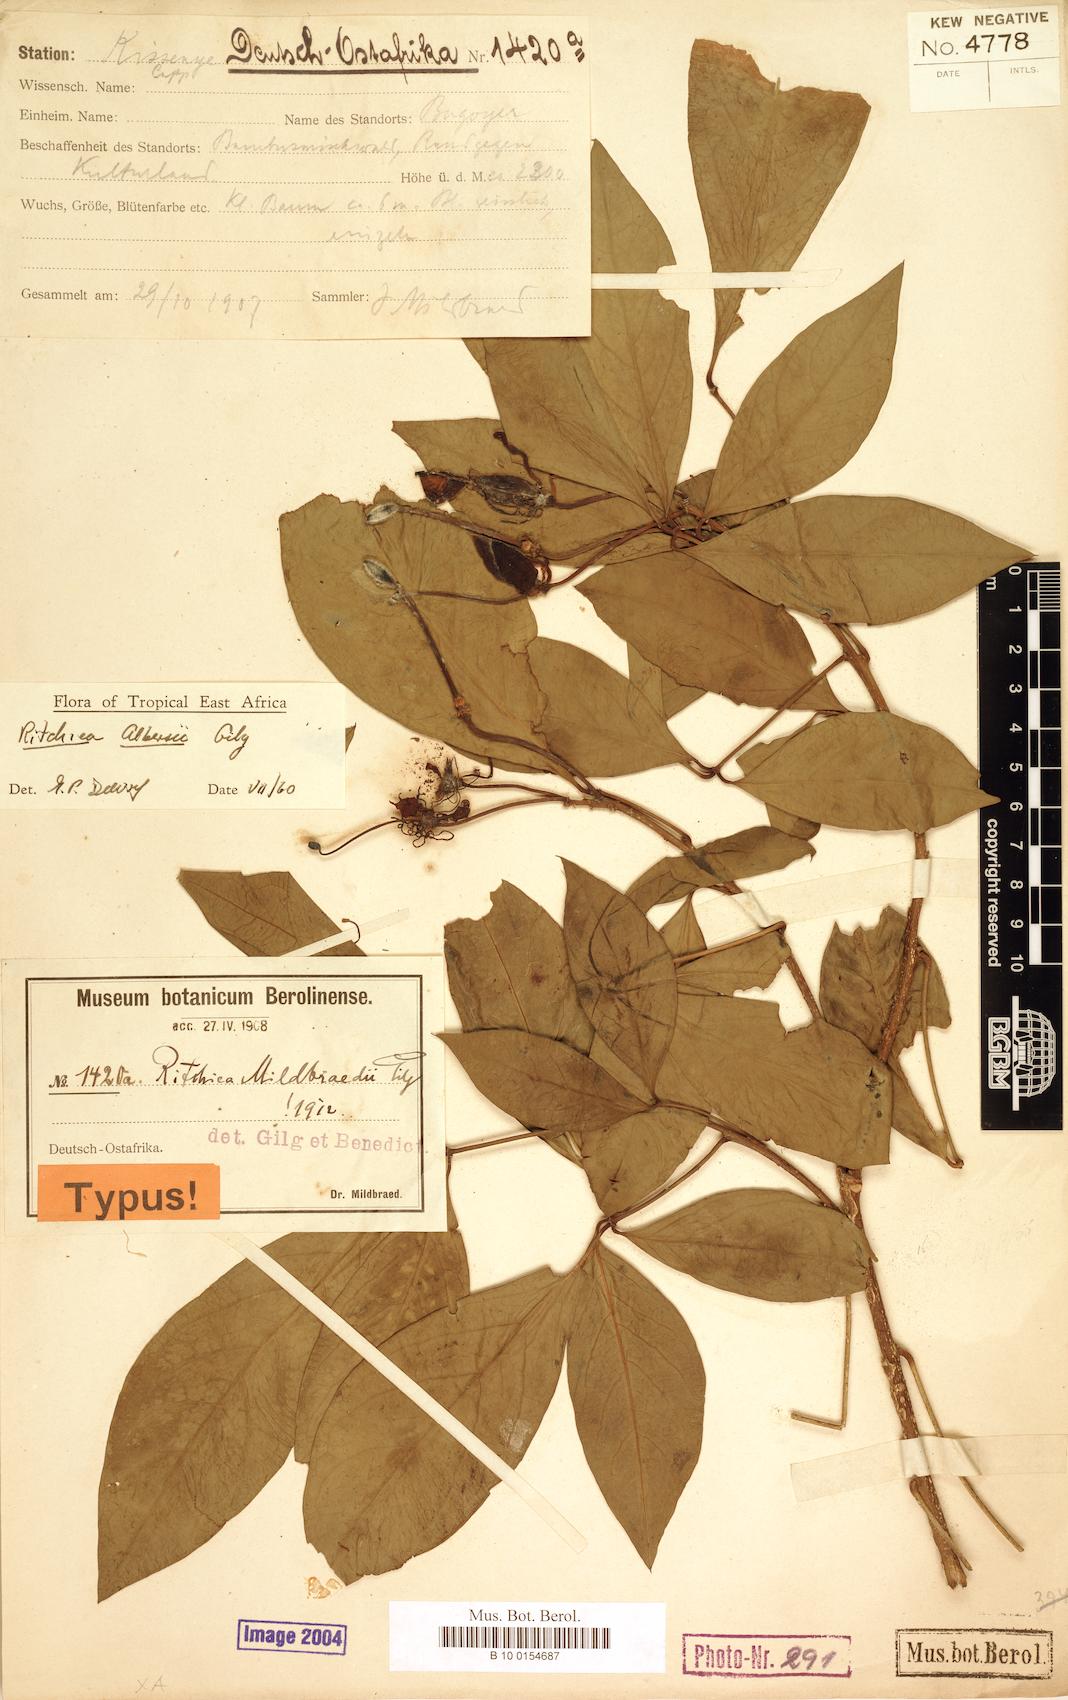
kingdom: Plantae
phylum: Tracheophyta
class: Magnoliopsida
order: Brassicales
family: Capparaceae
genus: Ritchiea
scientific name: Ritchiea albersii
